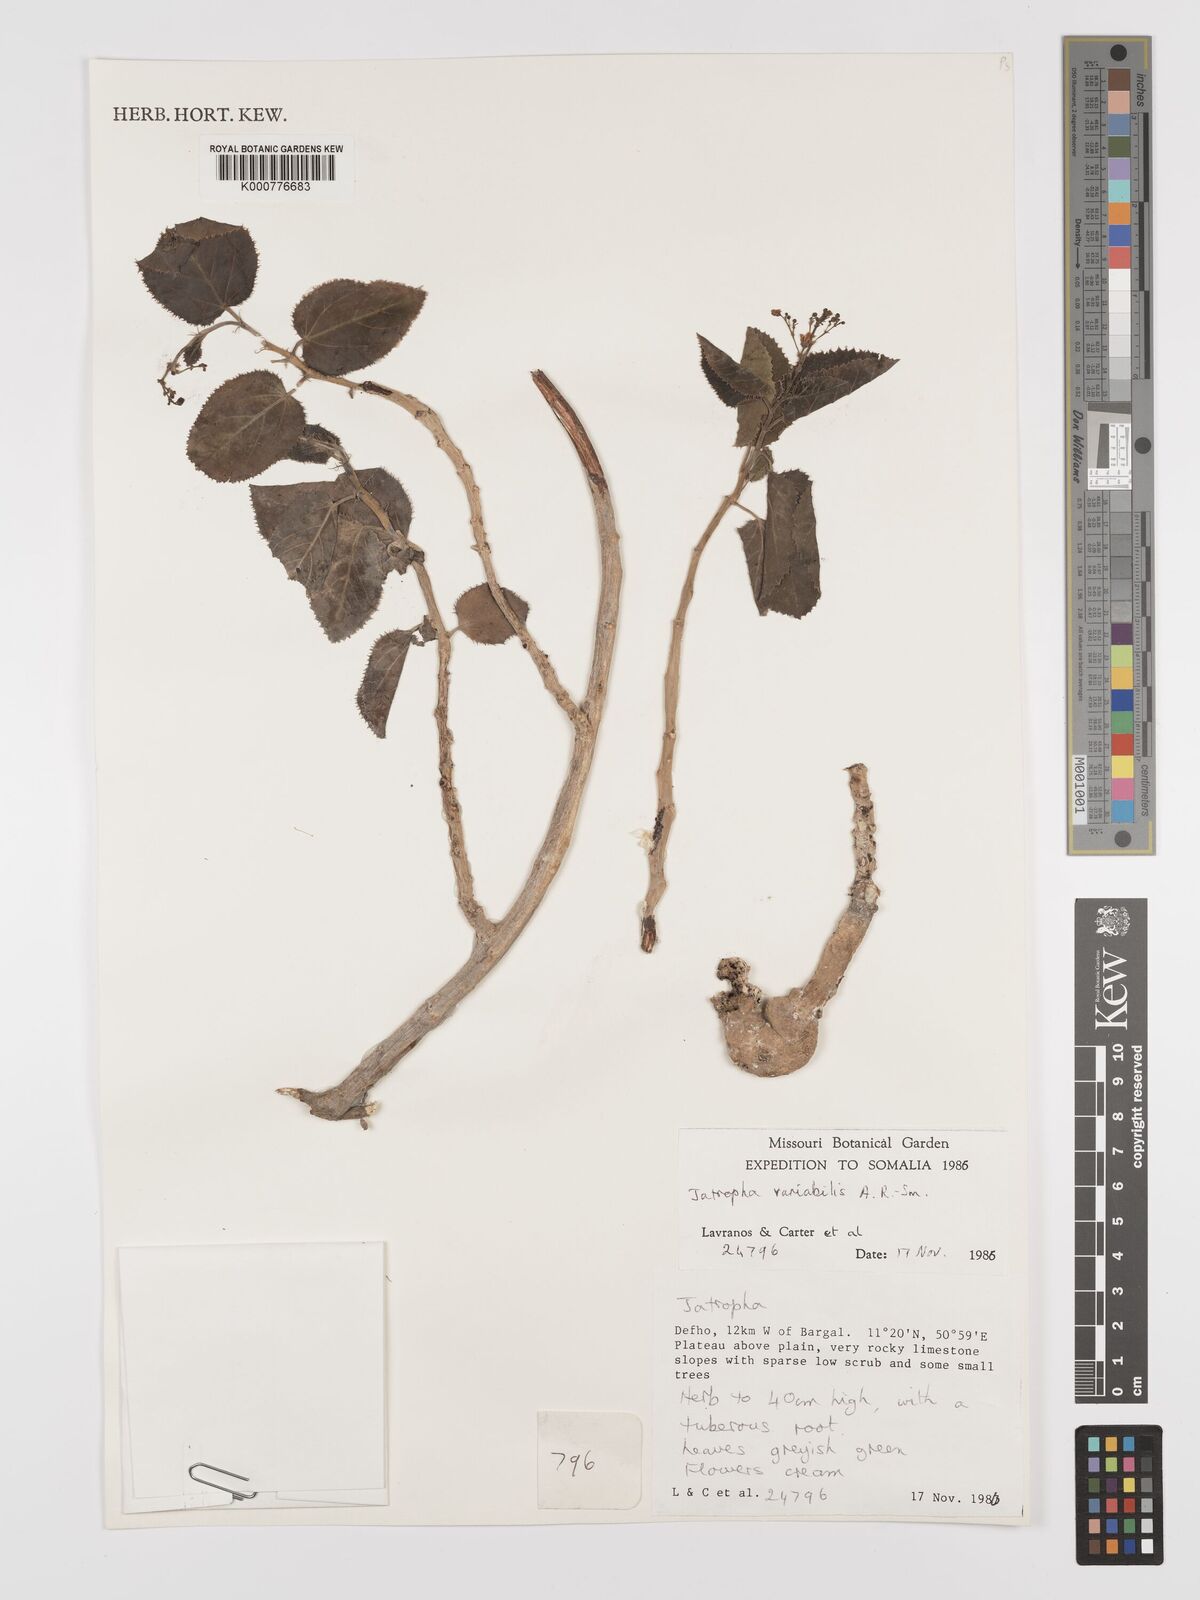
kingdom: Plantae
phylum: Tracheophyta
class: Magnoliopsida
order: Malpighiales
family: Euphorbiaceae
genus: Jatropha
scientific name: Jatropha variabilis
